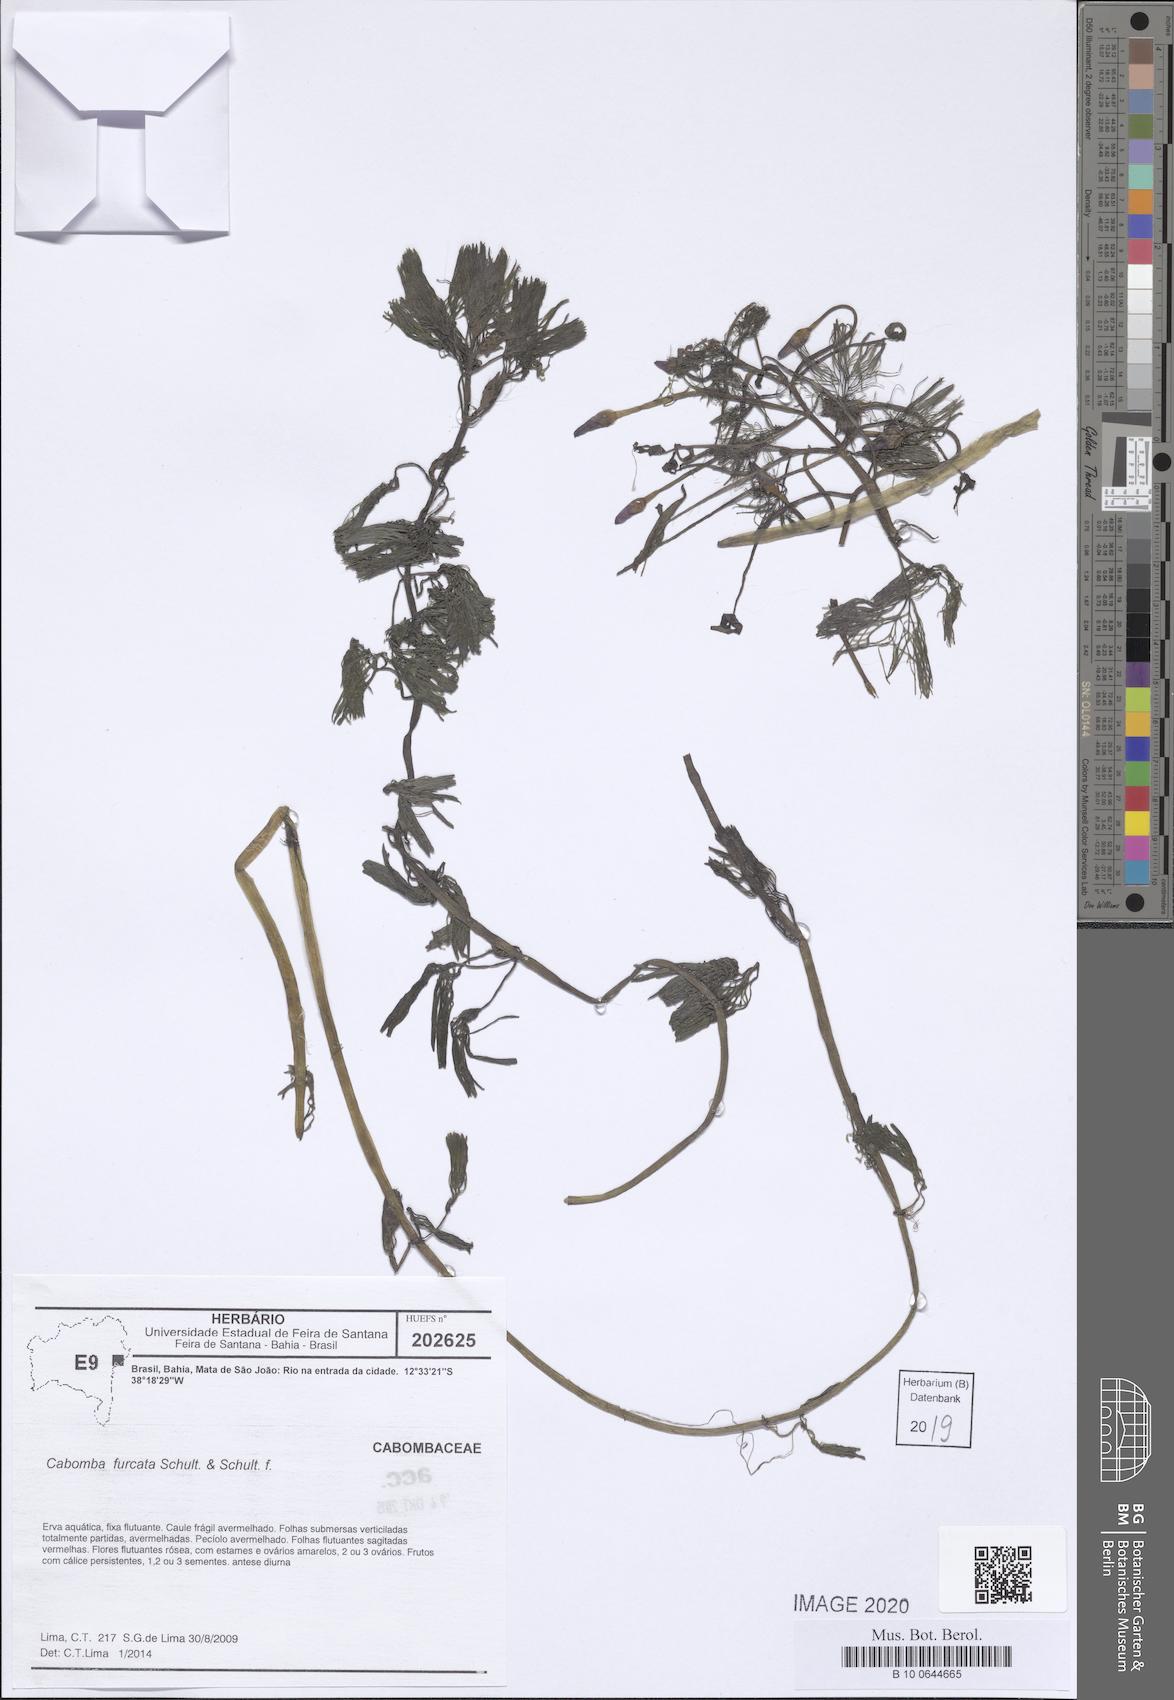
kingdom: Plantae
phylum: Tracheophyta
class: Magnoliopsida
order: Nymphaeales
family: Cabombaceae
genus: Cabomba
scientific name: Cabomba furcata
